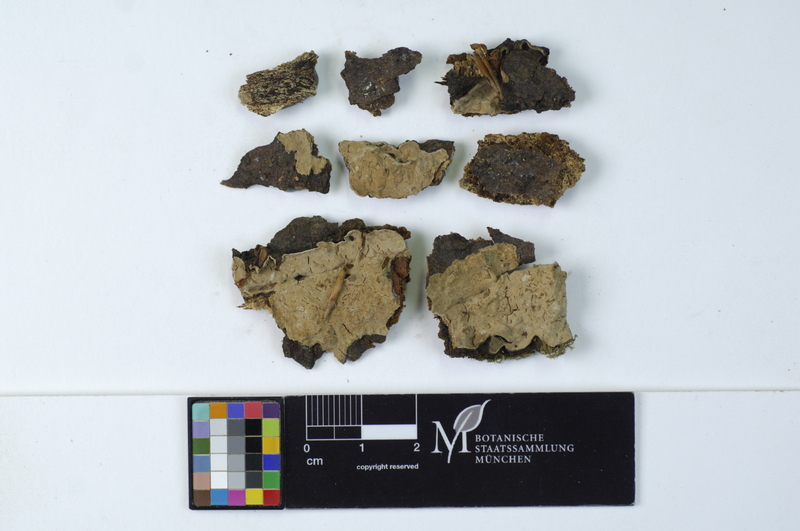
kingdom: Fungi
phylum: Basidiomycota
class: Agaricomycetes
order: Russulales
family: Echinodontiaceae
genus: Amylostereum
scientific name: Amylostereum chailletii
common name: Powdered duster
